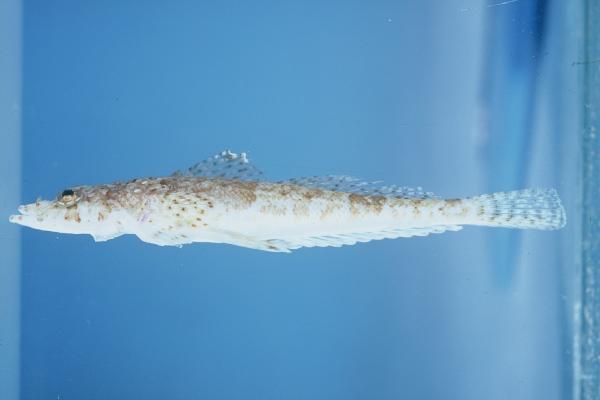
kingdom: Animalia
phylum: Chordata
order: Scorpaeniformes
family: Platycephalidae
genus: Sunagocia
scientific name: Sunagocia arenicola
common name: Broadhead flathead
